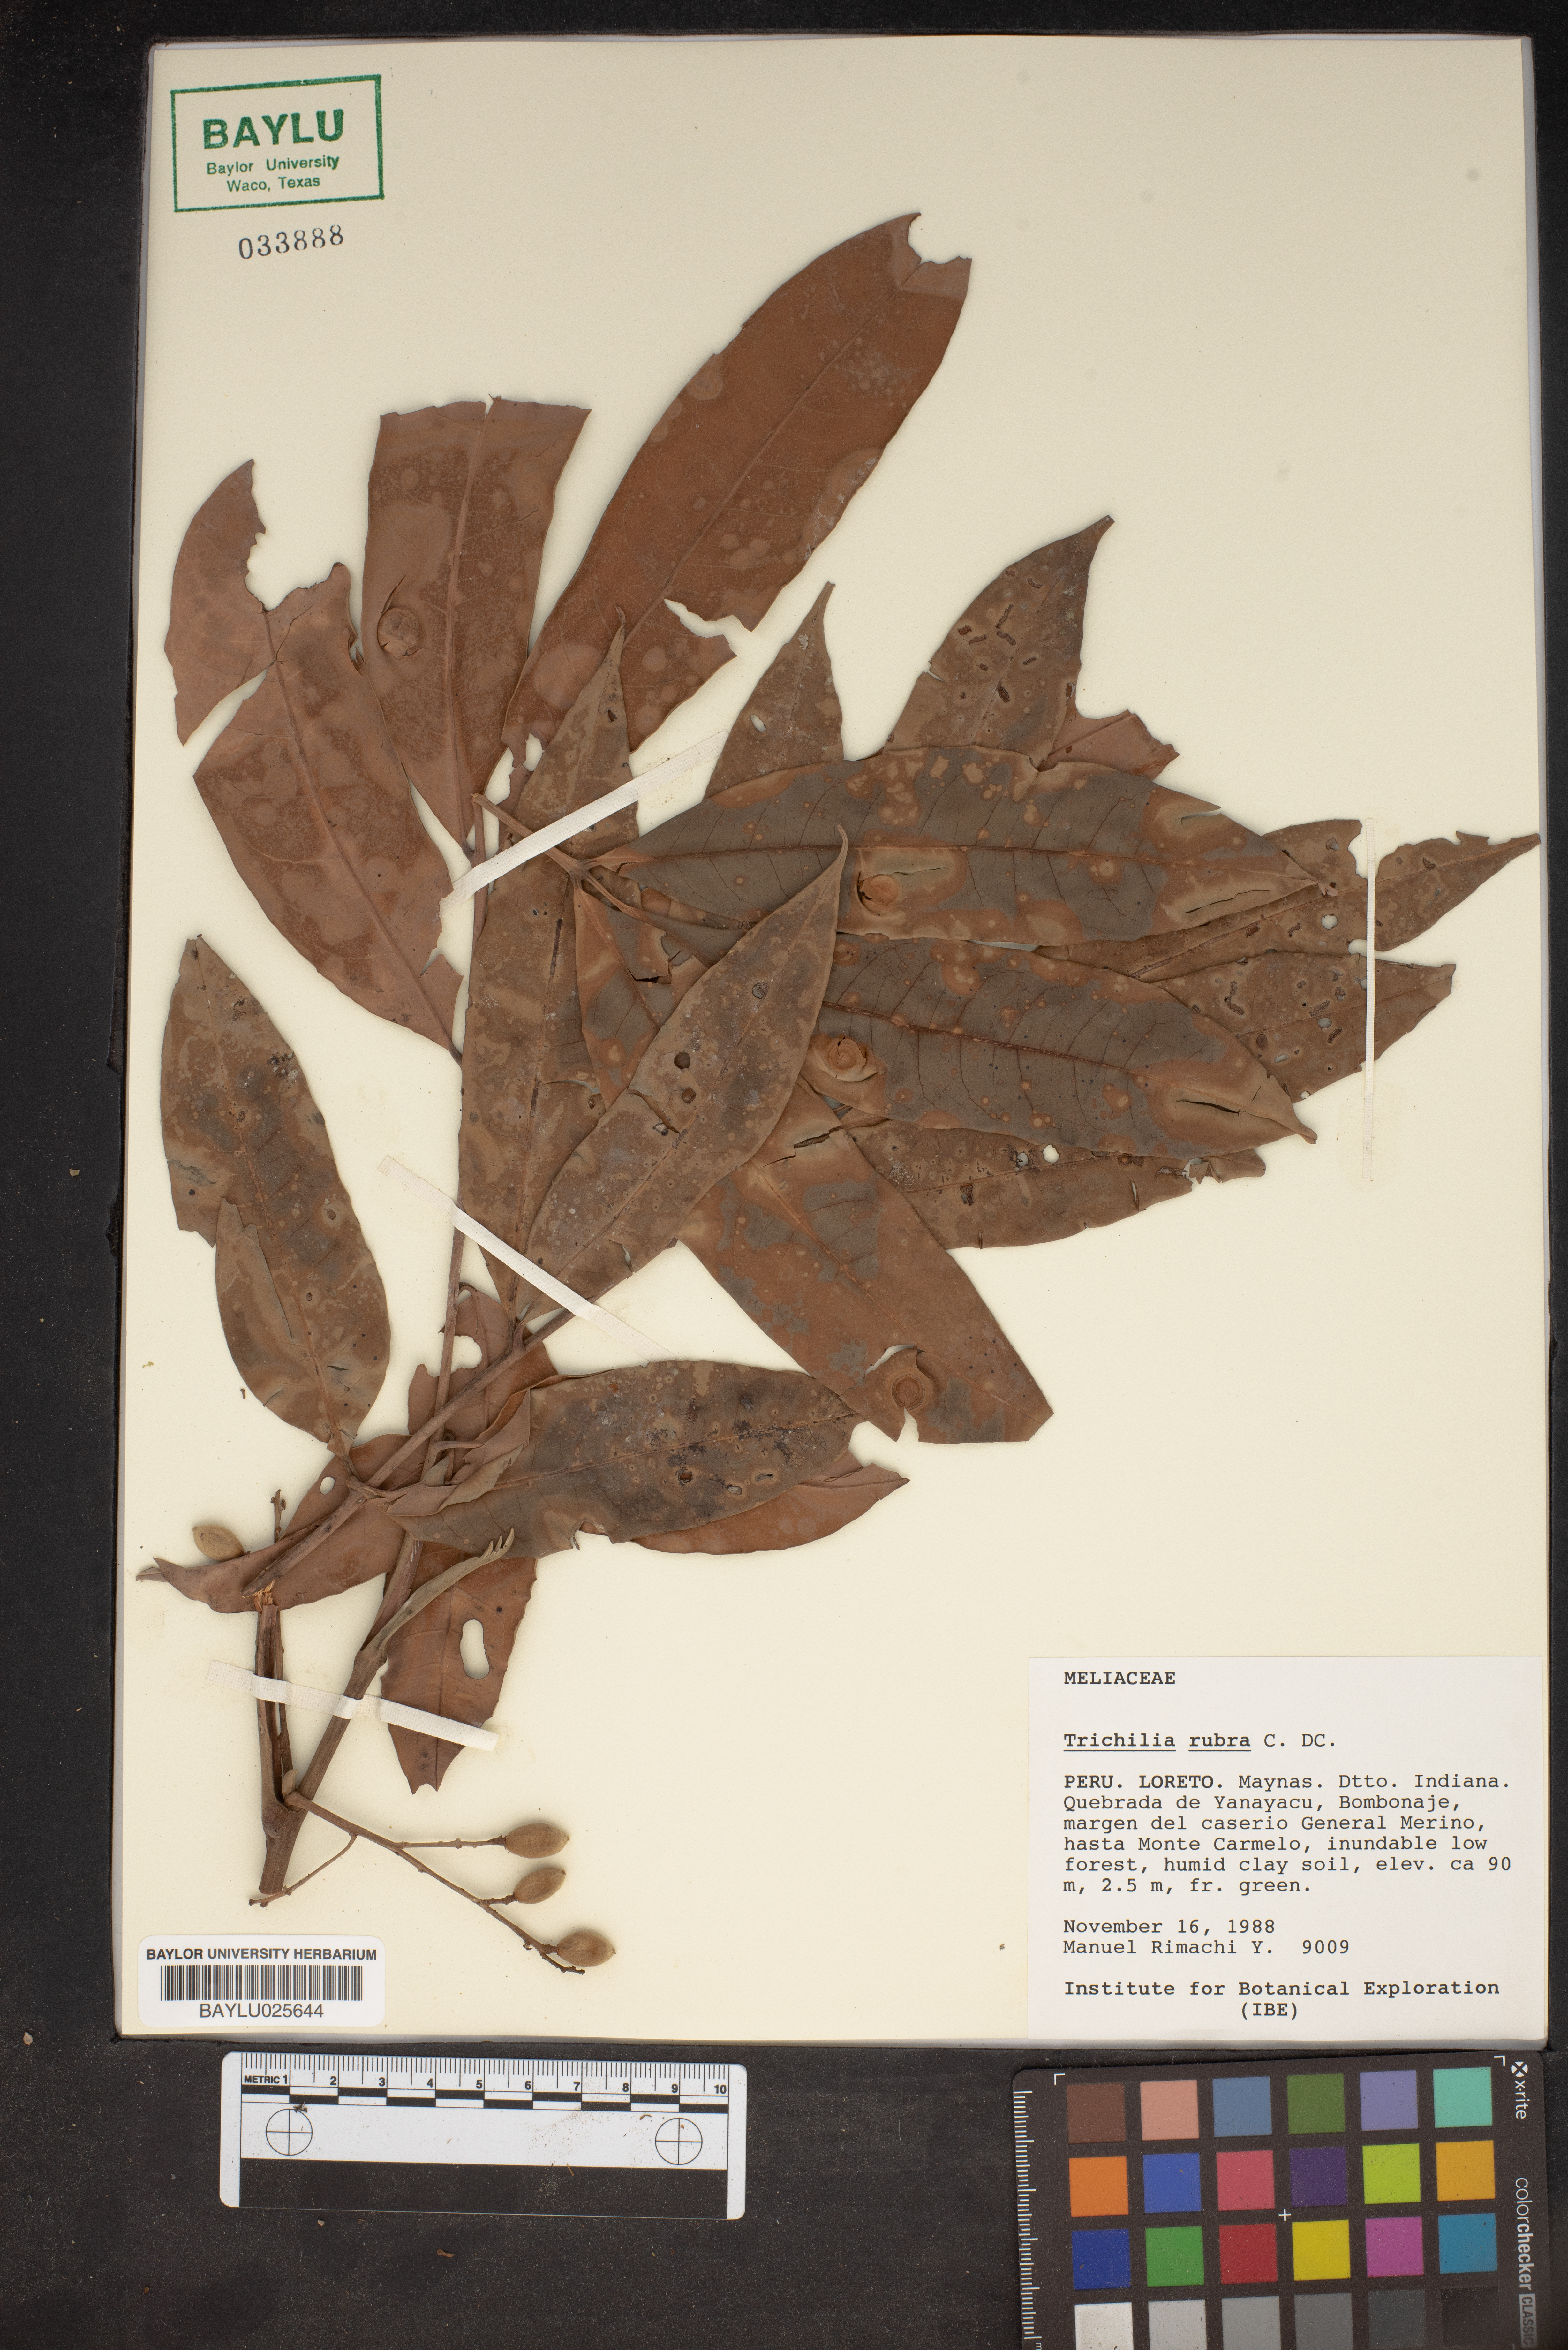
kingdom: Plantae
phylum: Tracheophyta
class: Magnoliopsida
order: Sapindales
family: Meliaceae
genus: Trichilia
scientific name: Trichilia rubra
